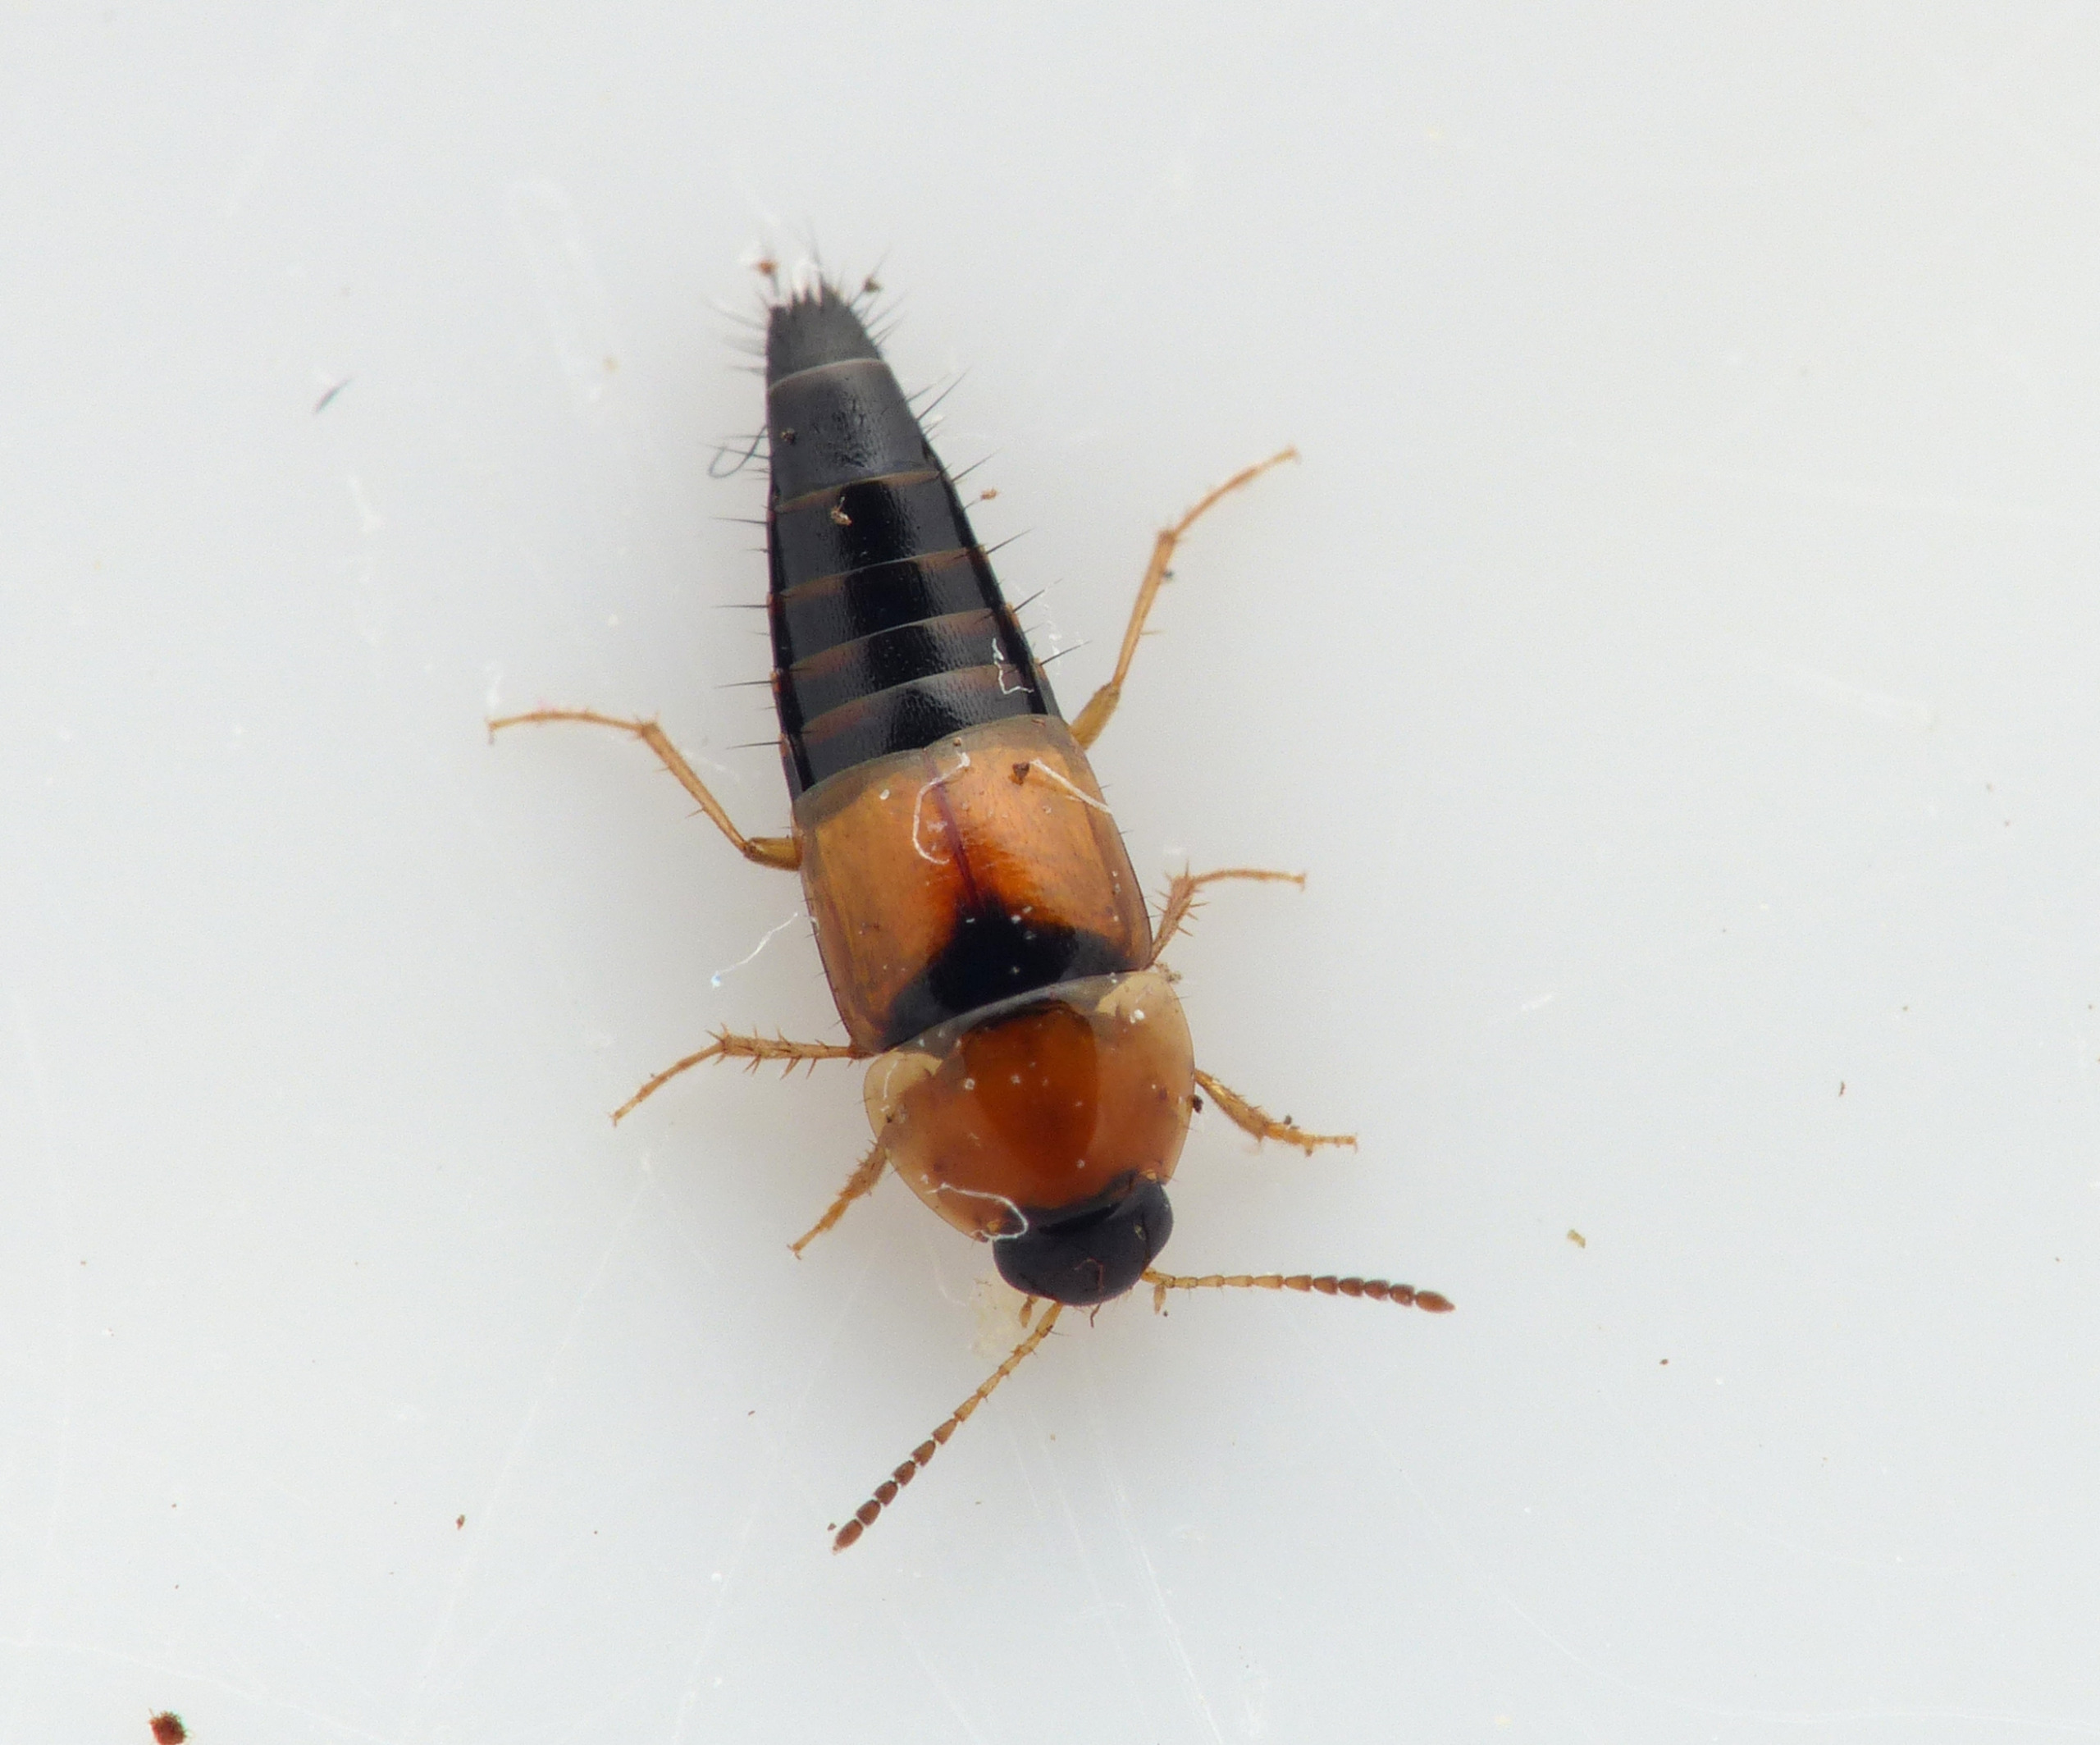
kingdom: Animalia
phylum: Arthropoda
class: Insecta
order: Coleoptera
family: Staphylinidae
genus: Tachyporus
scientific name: Tachyporus solutus
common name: Gulvinget agerrovbille
